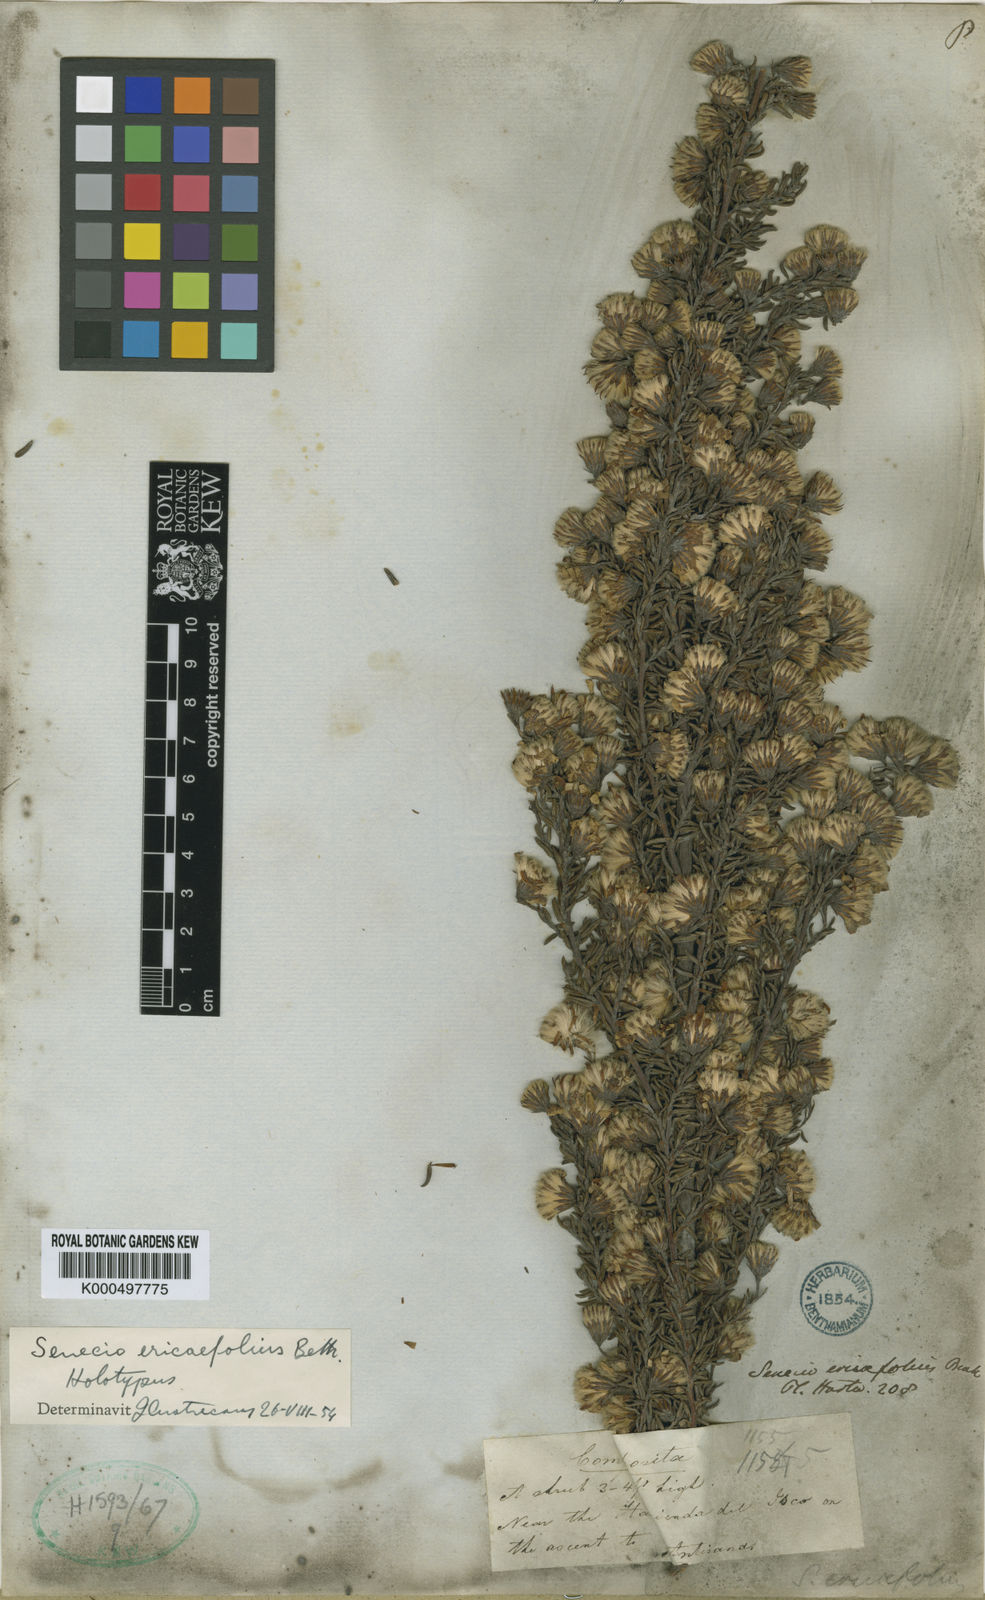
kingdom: Plantae
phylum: Tracheophyta
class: Magnoliopsida
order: Asterales
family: Asteraceae
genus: Monticalia
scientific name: Monticalia peruviana
